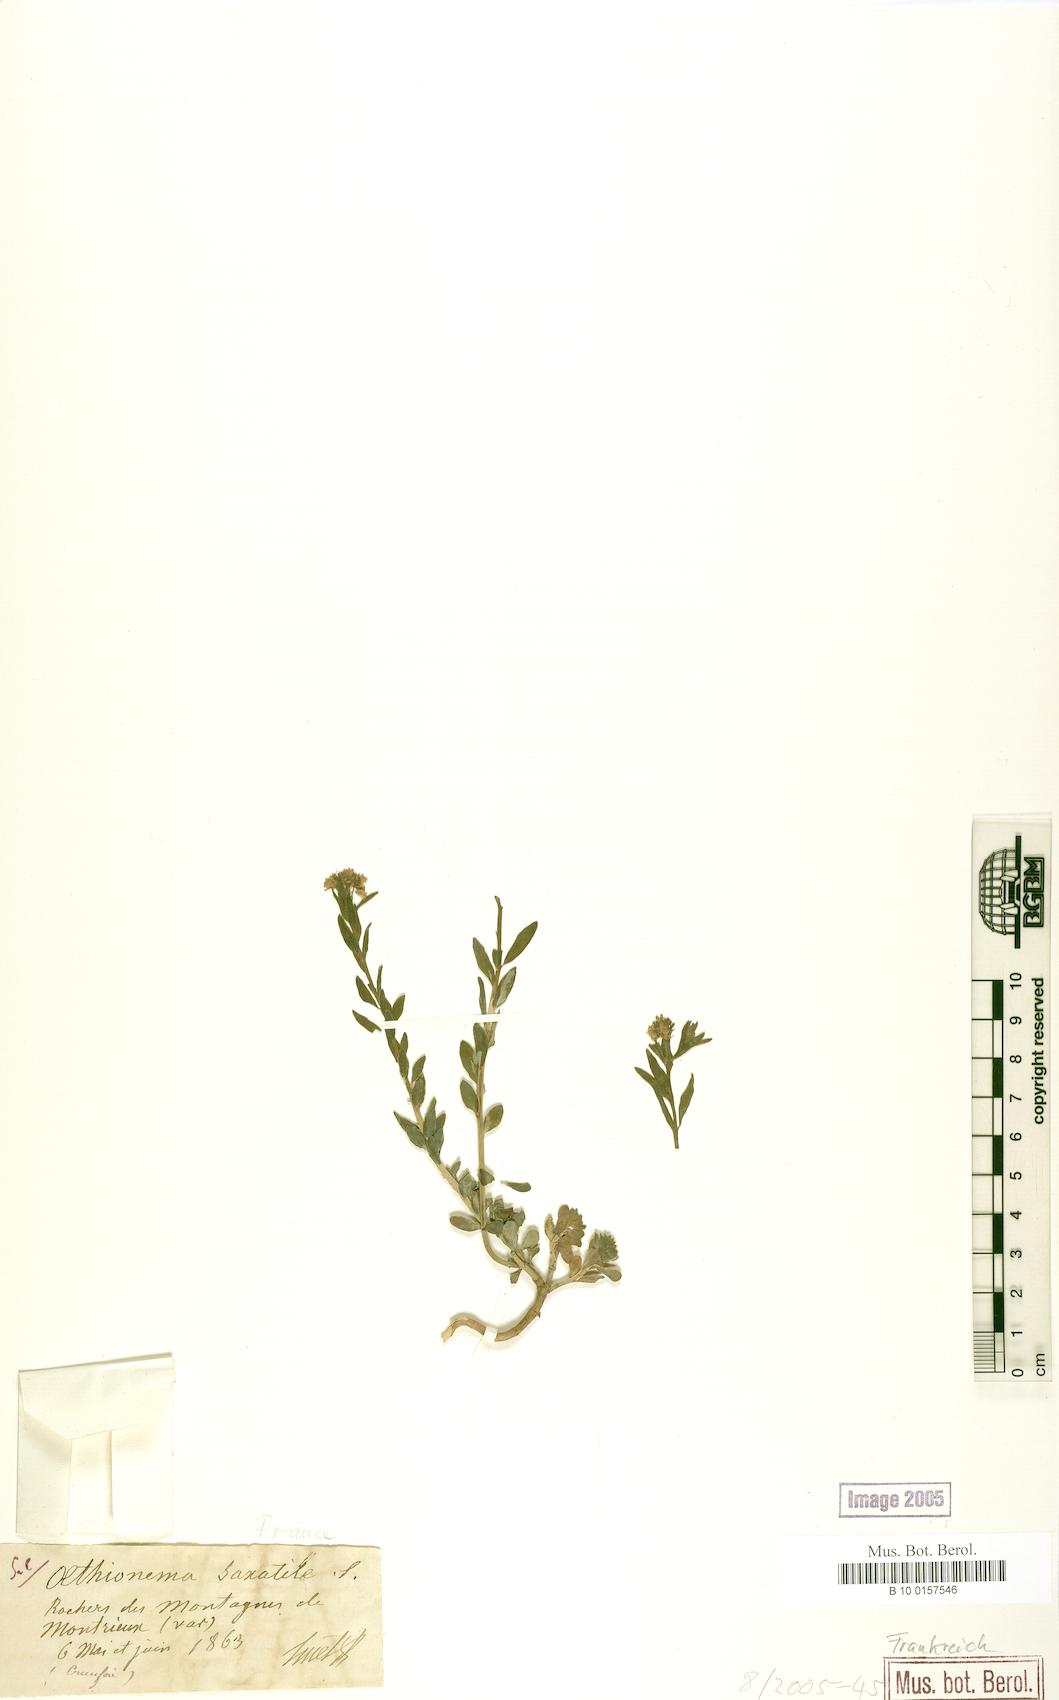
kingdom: Plantae
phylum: Tracheophyta
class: Magnoliopsida
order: Brassicales
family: Brassicaceae
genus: Aethionema
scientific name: Aethionema saxatile
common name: Burnt candytuft
